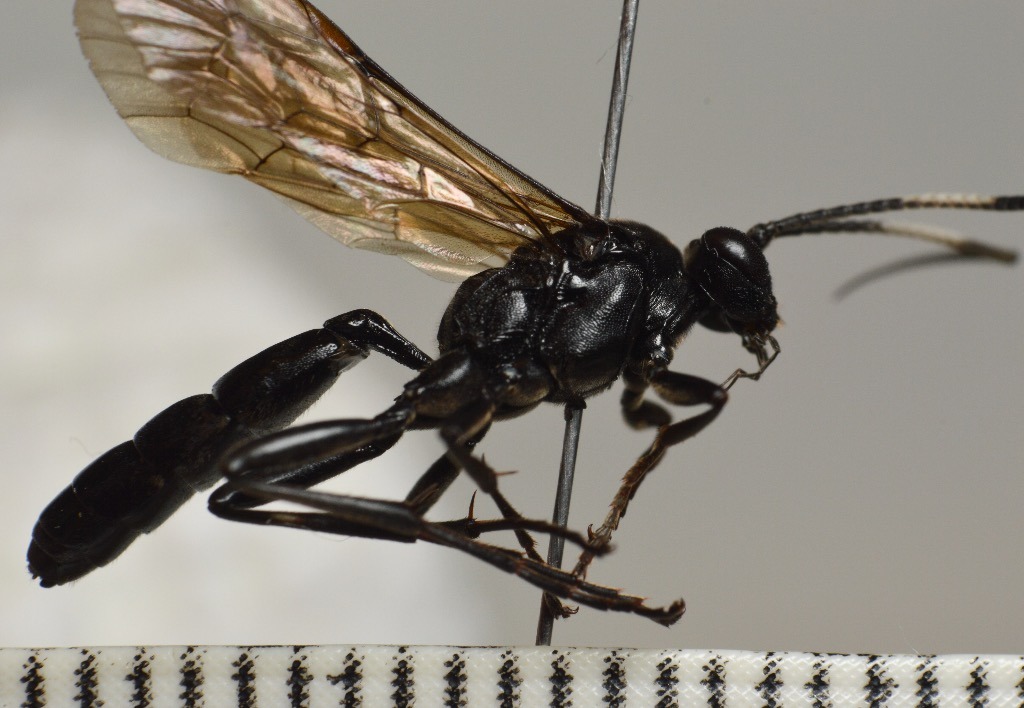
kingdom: Animalia
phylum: Arthropoda
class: Insecta
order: Hymenoptera
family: Ichneumonidae
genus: Ctenichneumon
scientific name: Ctenichneumon funereus
